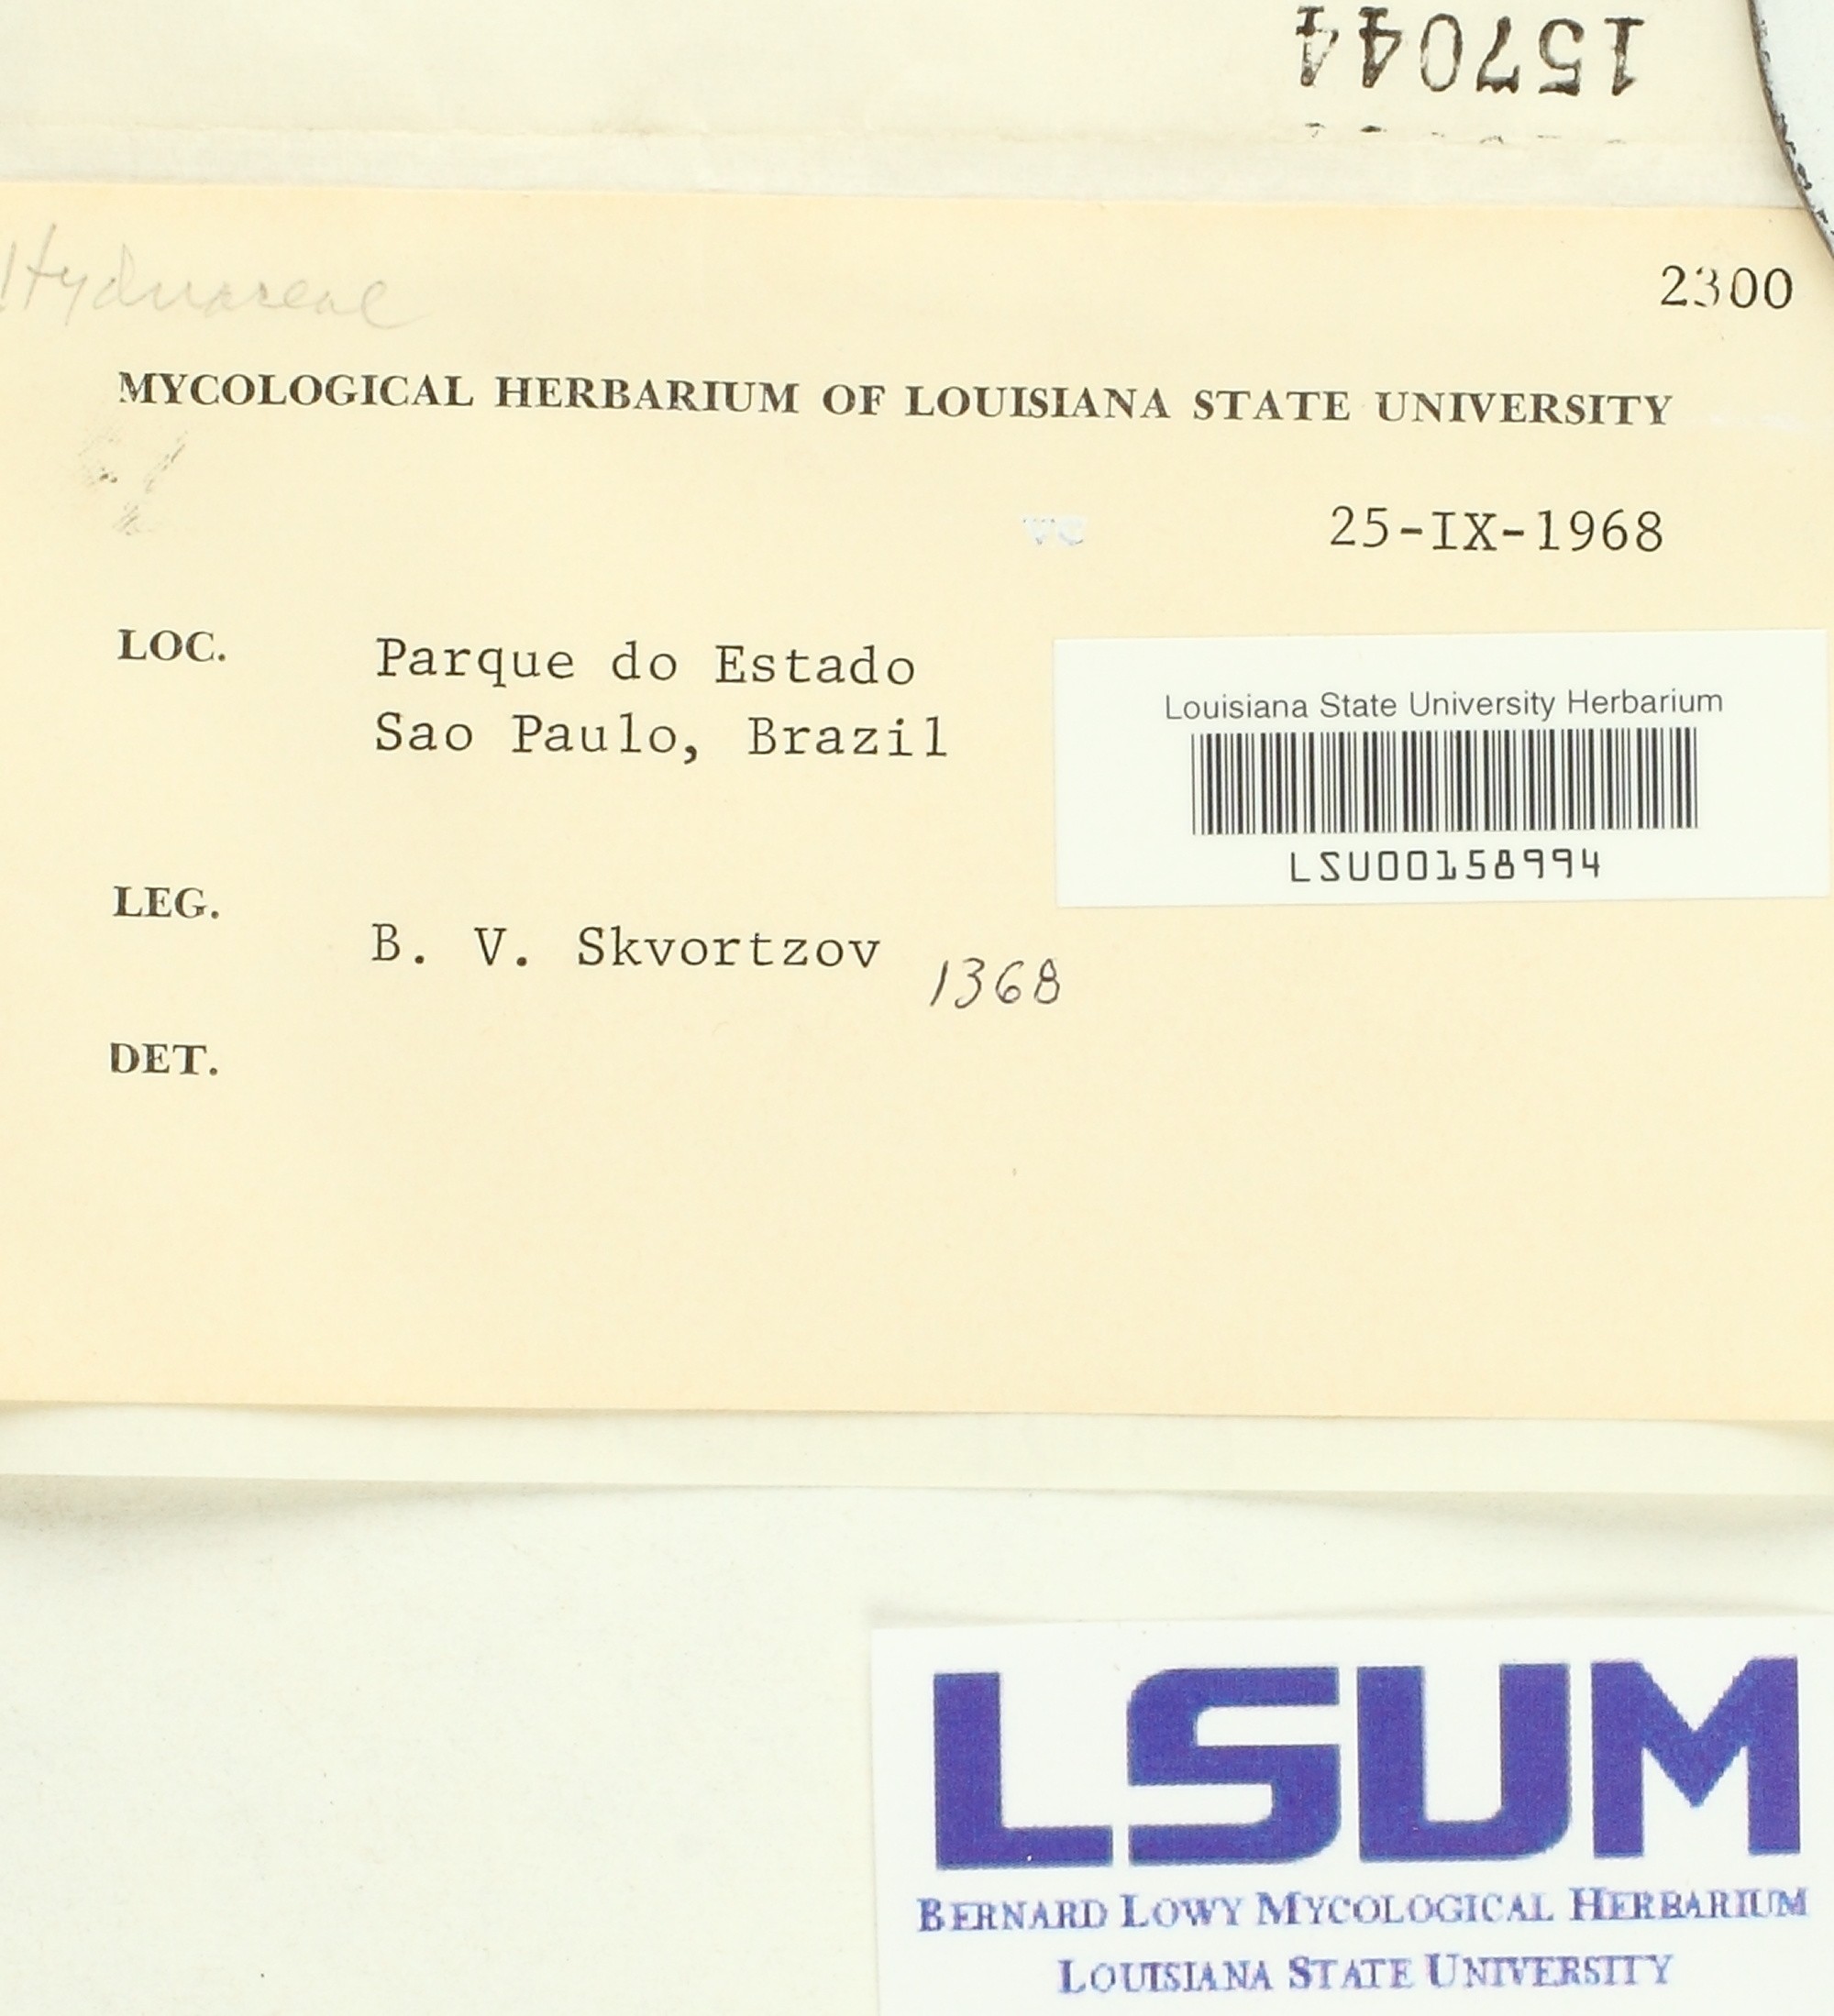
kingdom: Fungi
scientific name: Fungi
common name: Fungi
